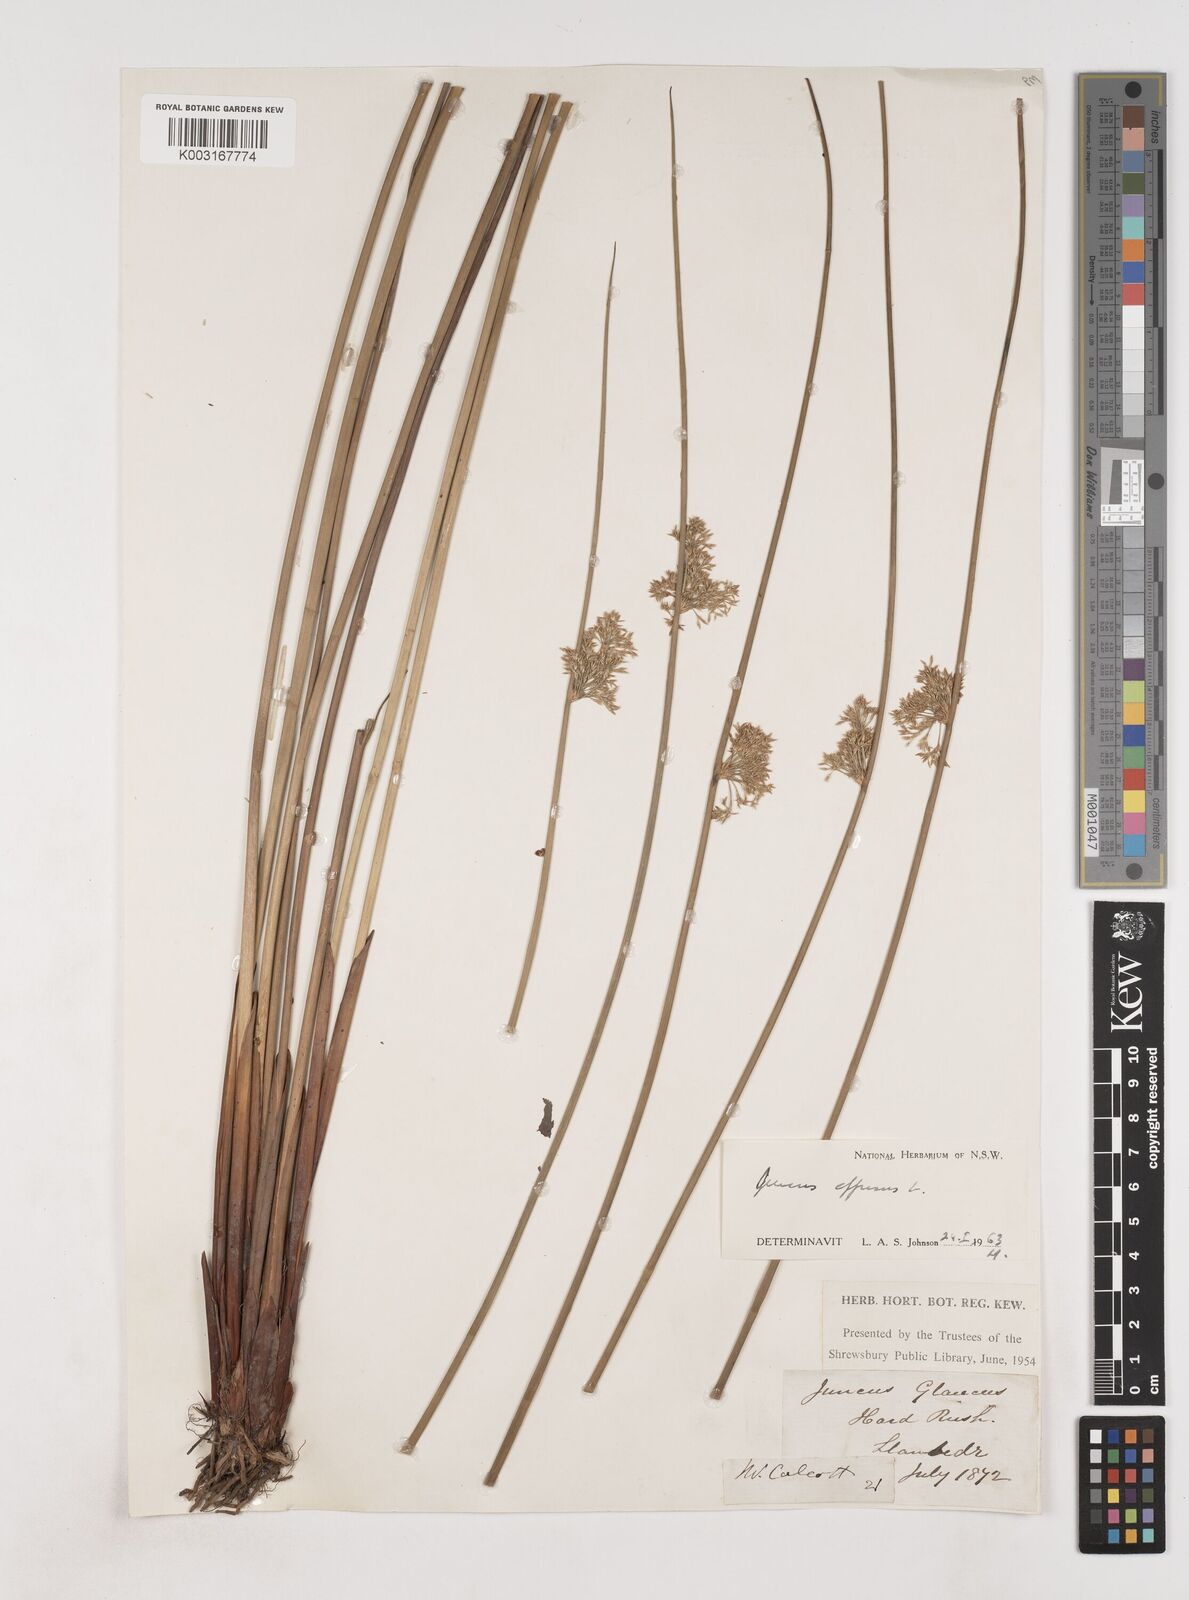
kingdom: Plantae
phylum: Tracheophyta
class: Liliopsida
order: Poales
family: Juncaceae
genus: Juncus
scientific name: Juncus effusus
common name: Soft rush
